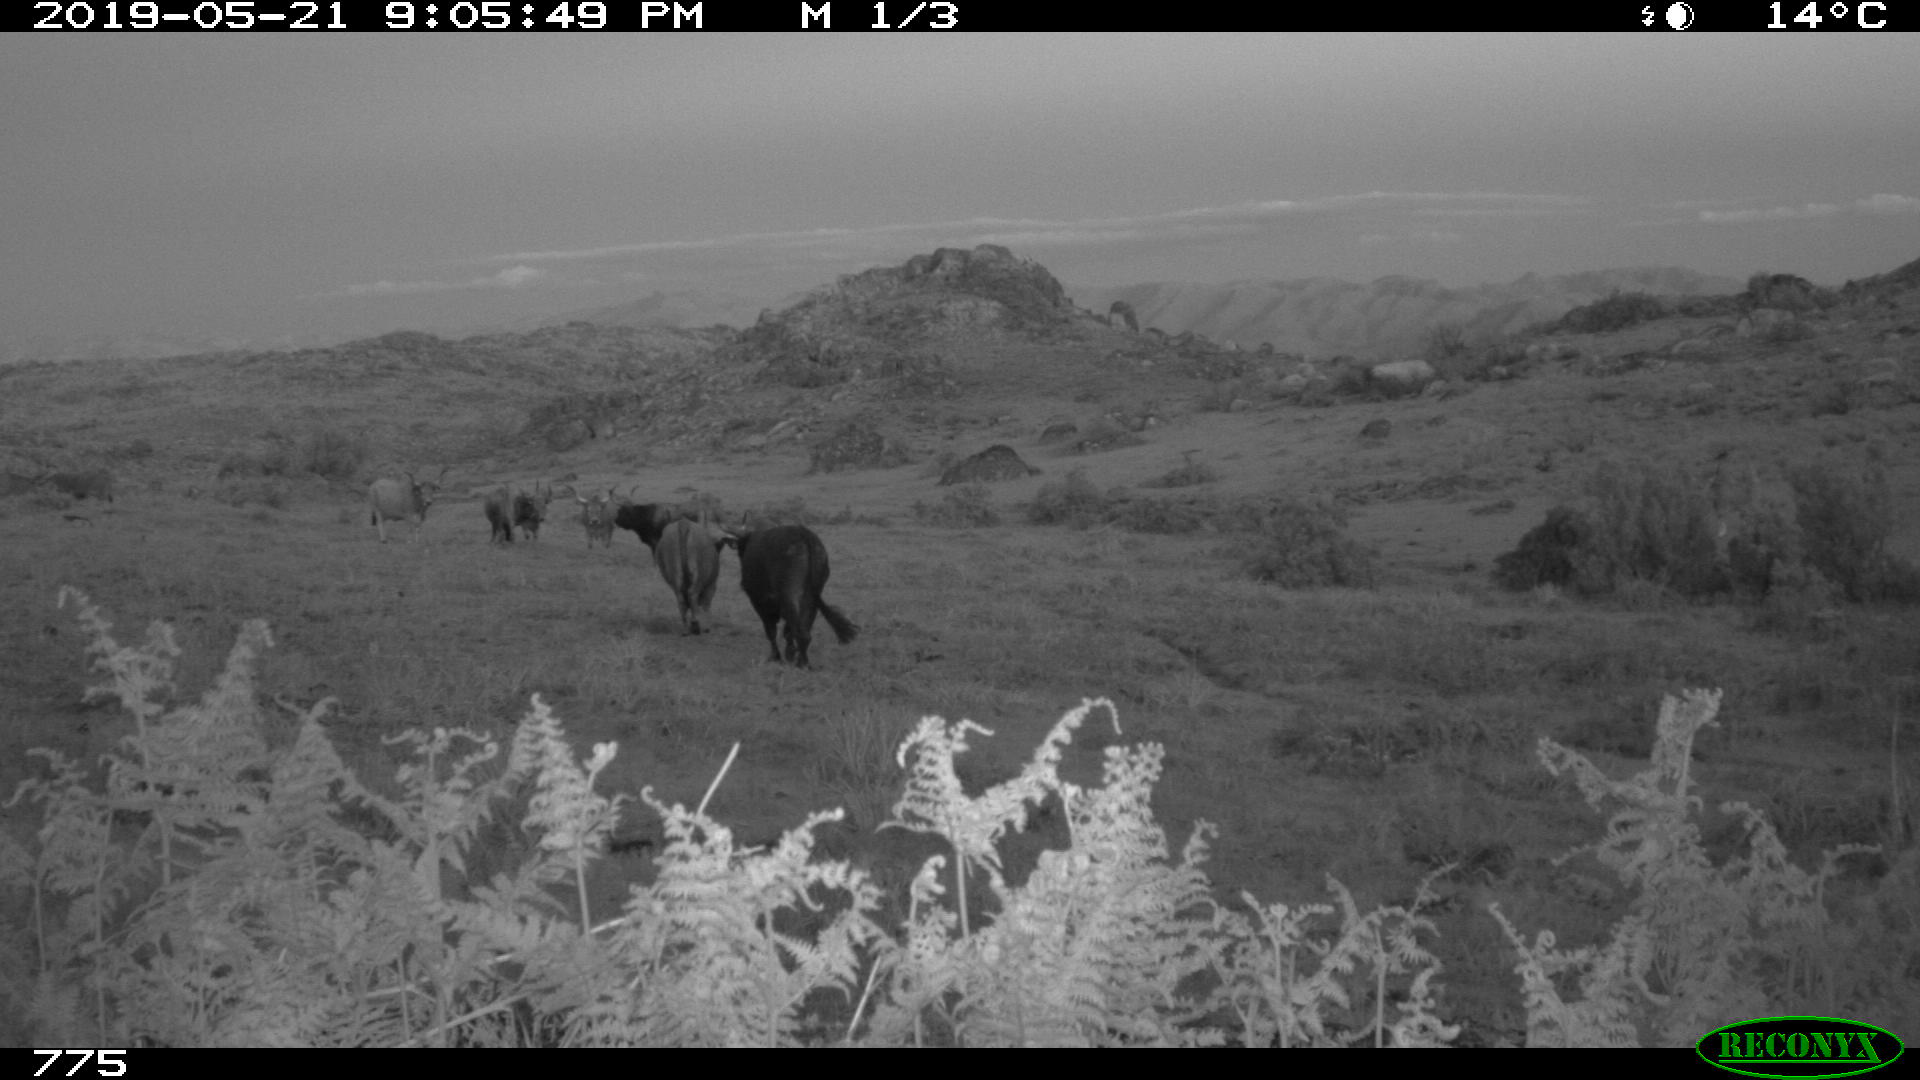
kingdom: Animalia
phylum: Chordata
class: Mammalia
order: Artiodactyla
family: Bovidae
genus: Bos
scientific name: Bos taurus
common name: Domesticated cattle
